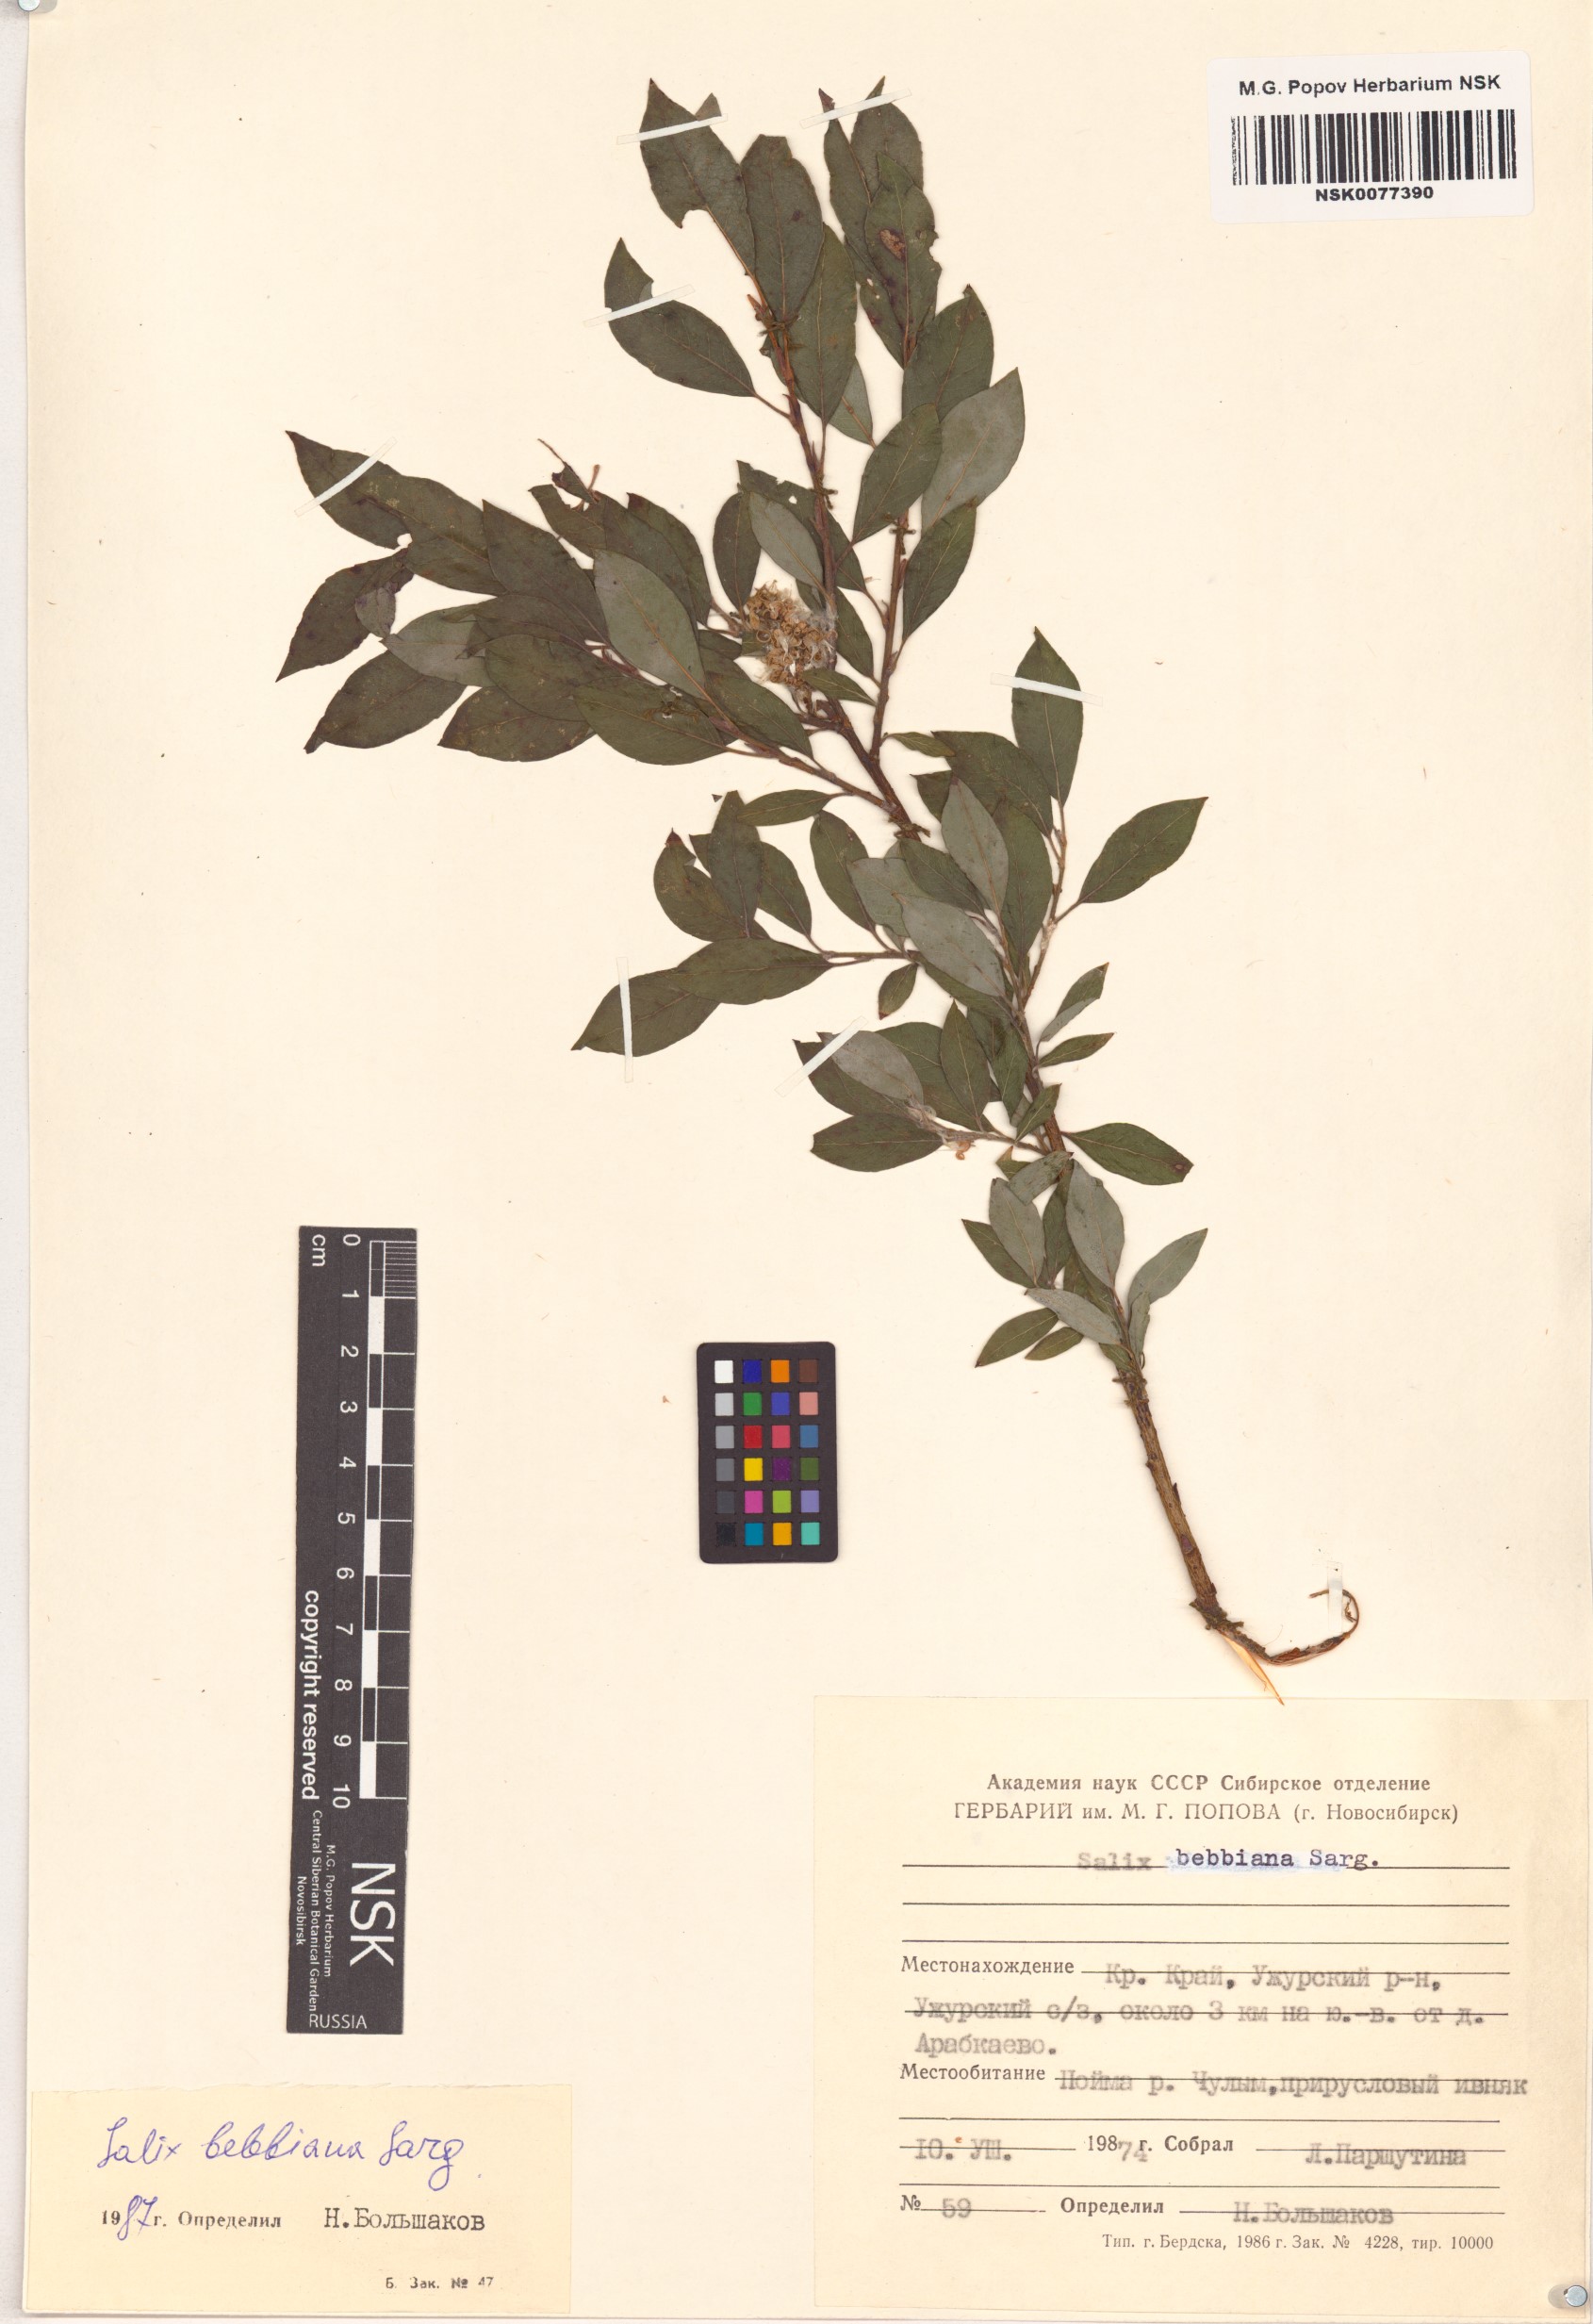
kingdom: Plantae
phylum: Tracheophyta
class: Magnoliopsida
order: Malpighiales
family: Salicaceae
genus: Salix
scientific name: Salix bebbiana
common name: Bebb's willow
